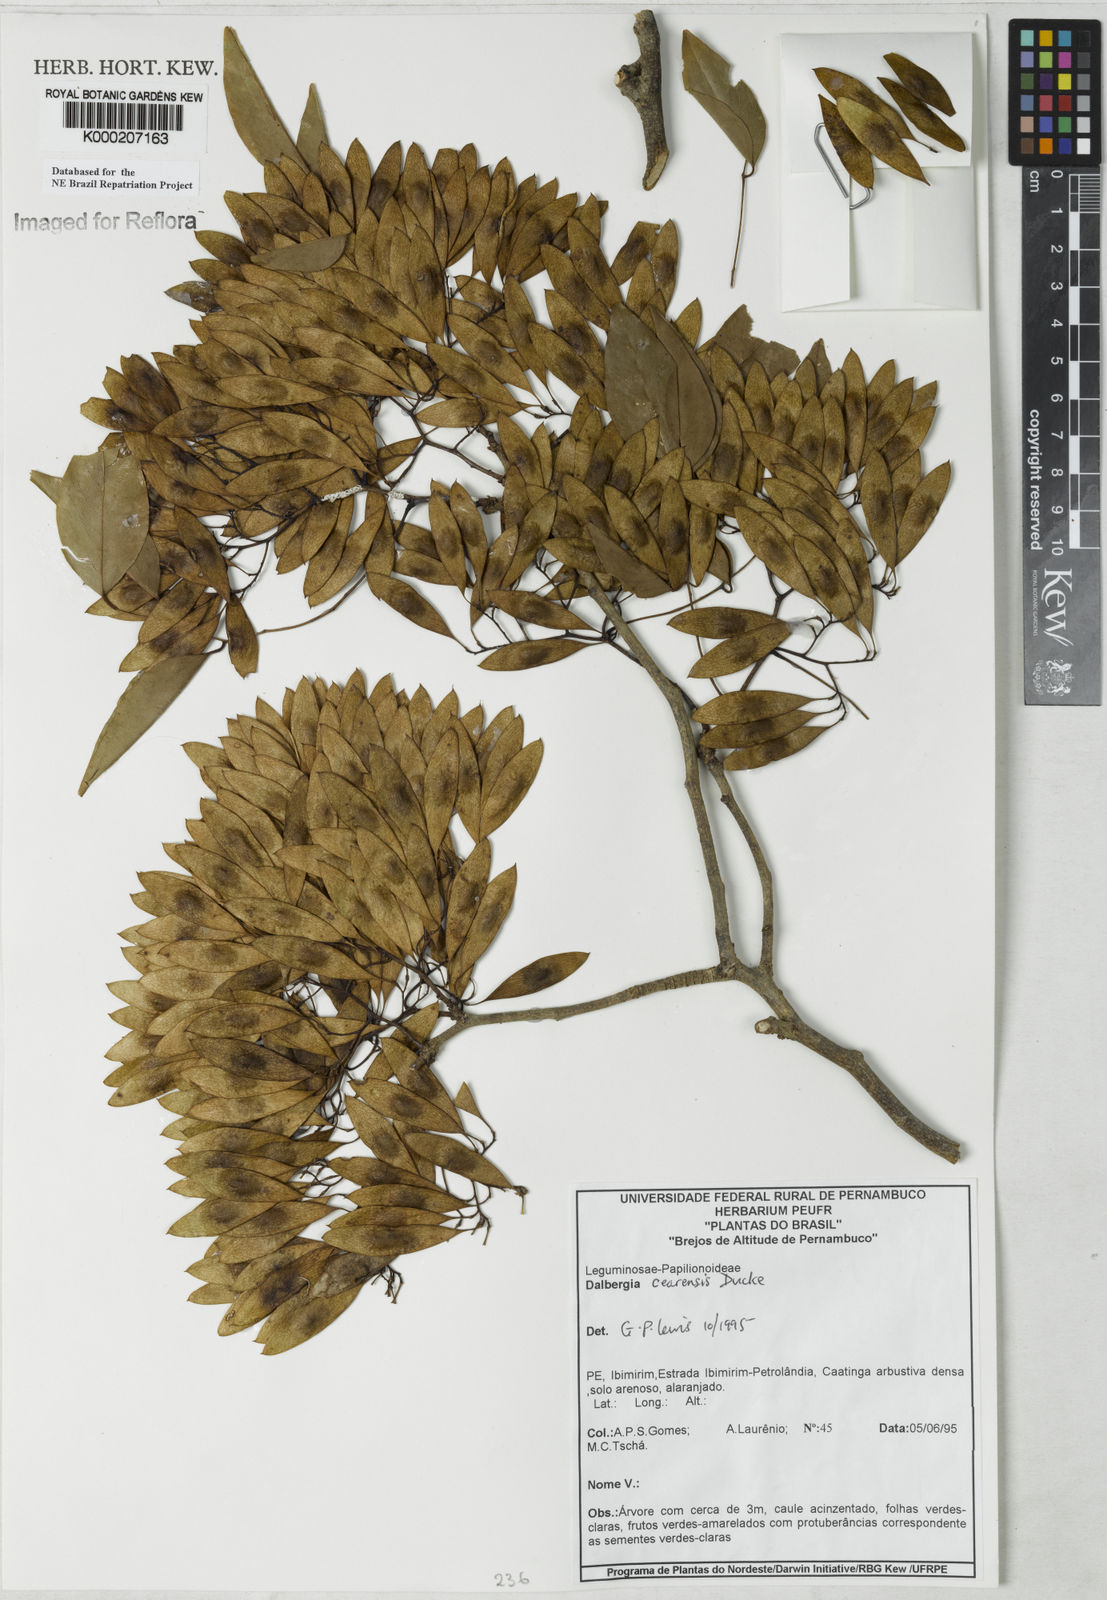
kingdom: Plantae
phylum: Tracheophyta
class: Magnoliopsida
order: Fabales
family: Fabaceae
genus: Dalbergia
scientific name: Dalbergia cearensis
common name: Brazilian-king-wood
